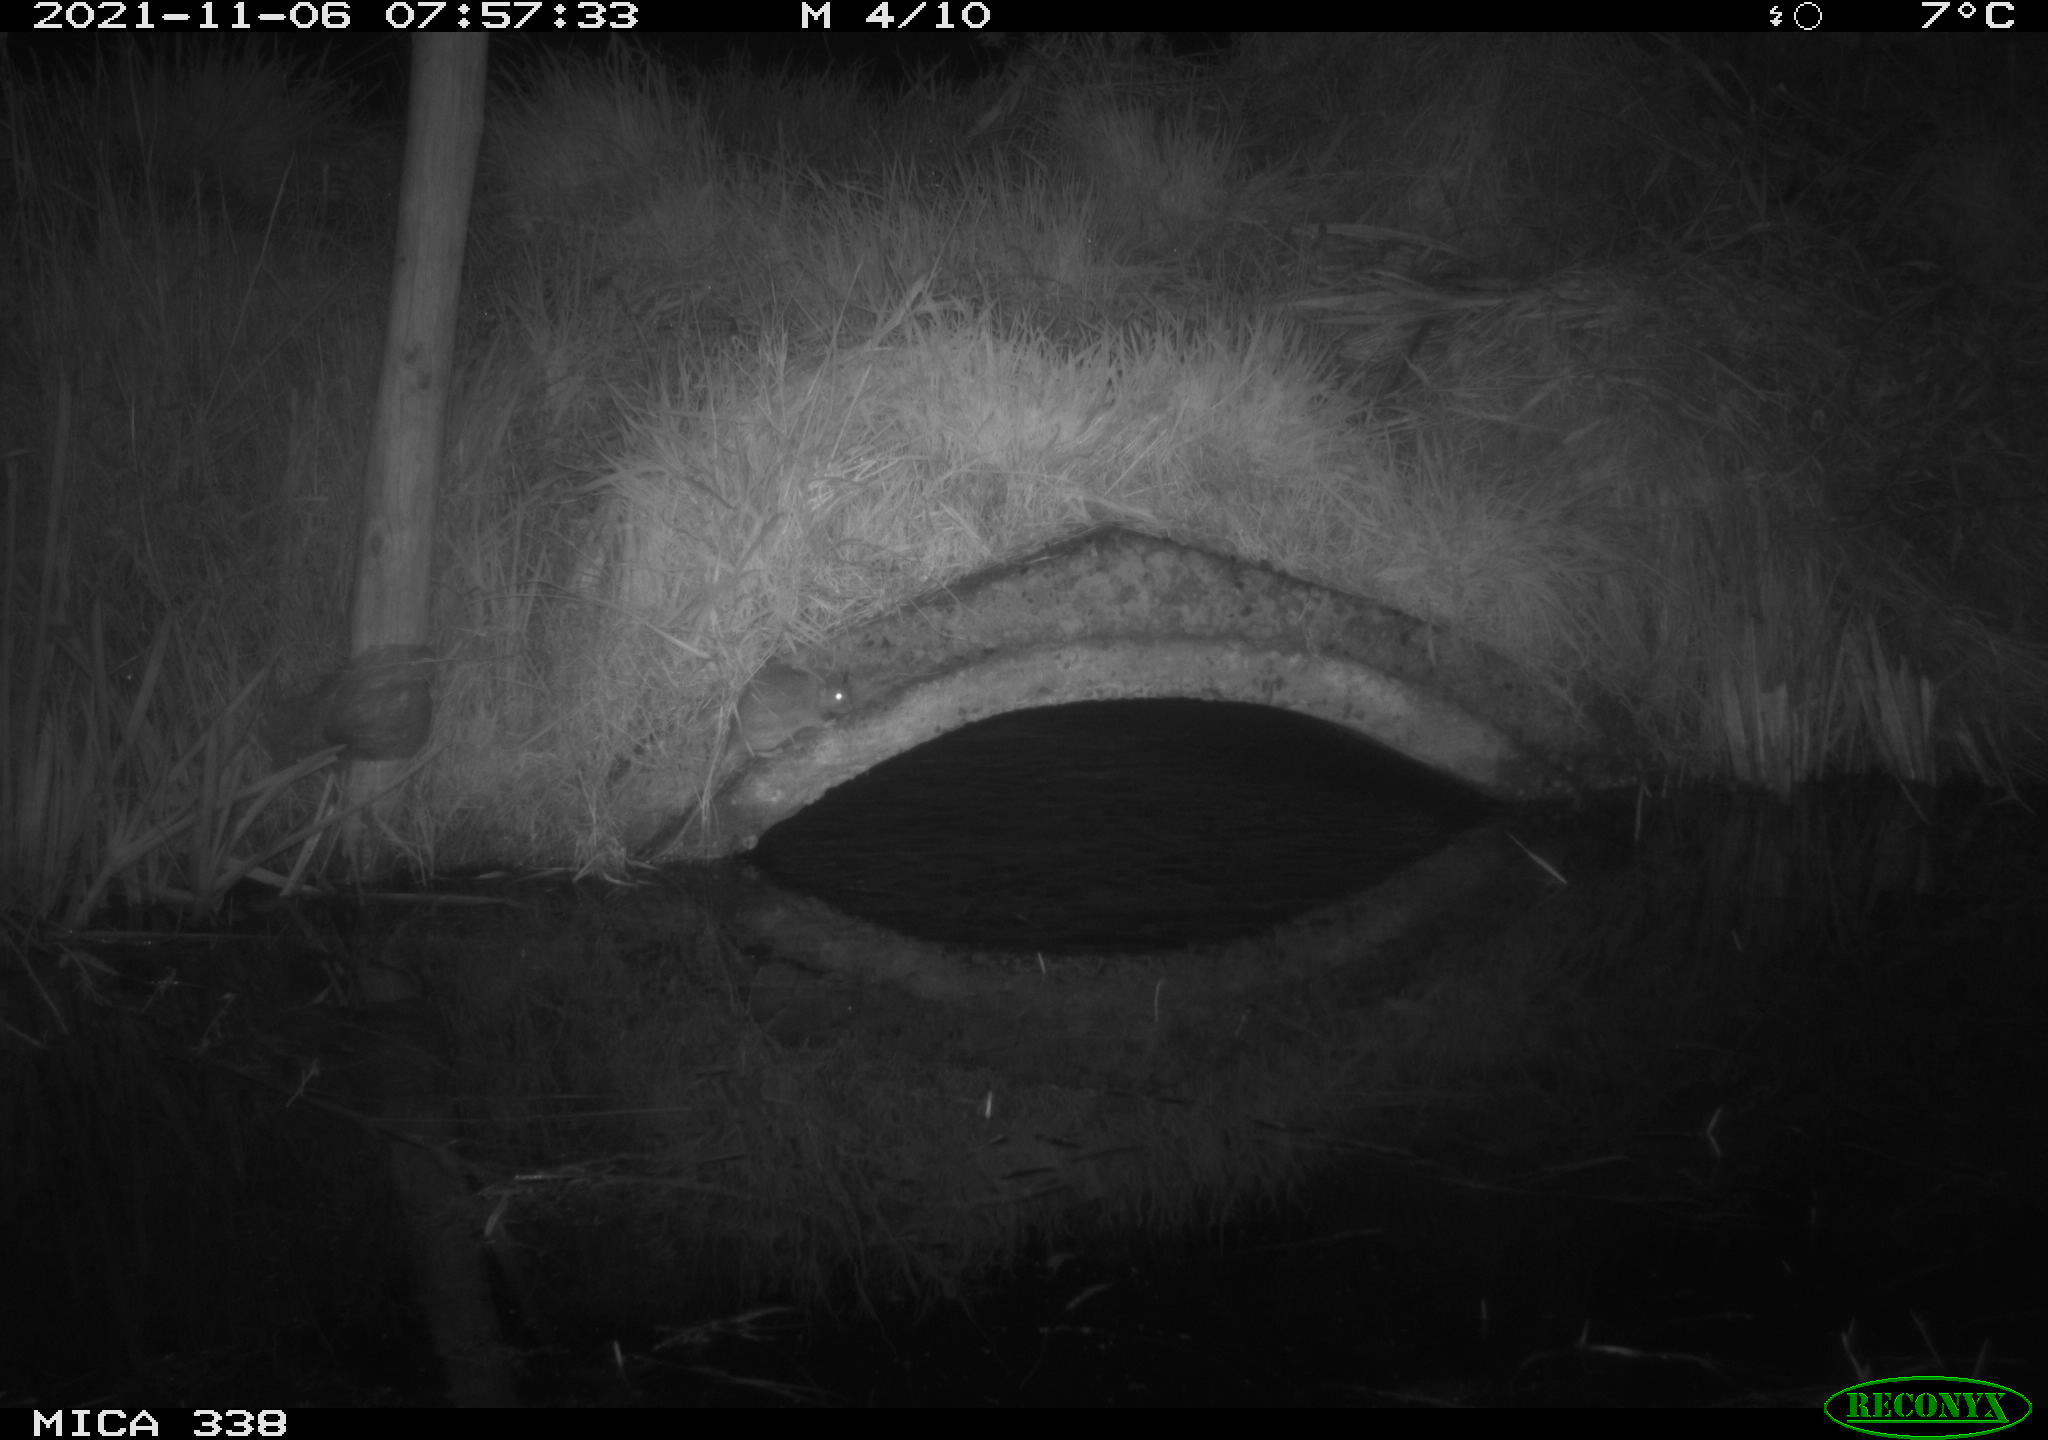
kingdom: Animalia
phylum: Chordata
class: Mammalia
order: Rodentia
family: Muridae
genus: Rattus
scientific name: Rattus norvegicus
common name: Brown rat
